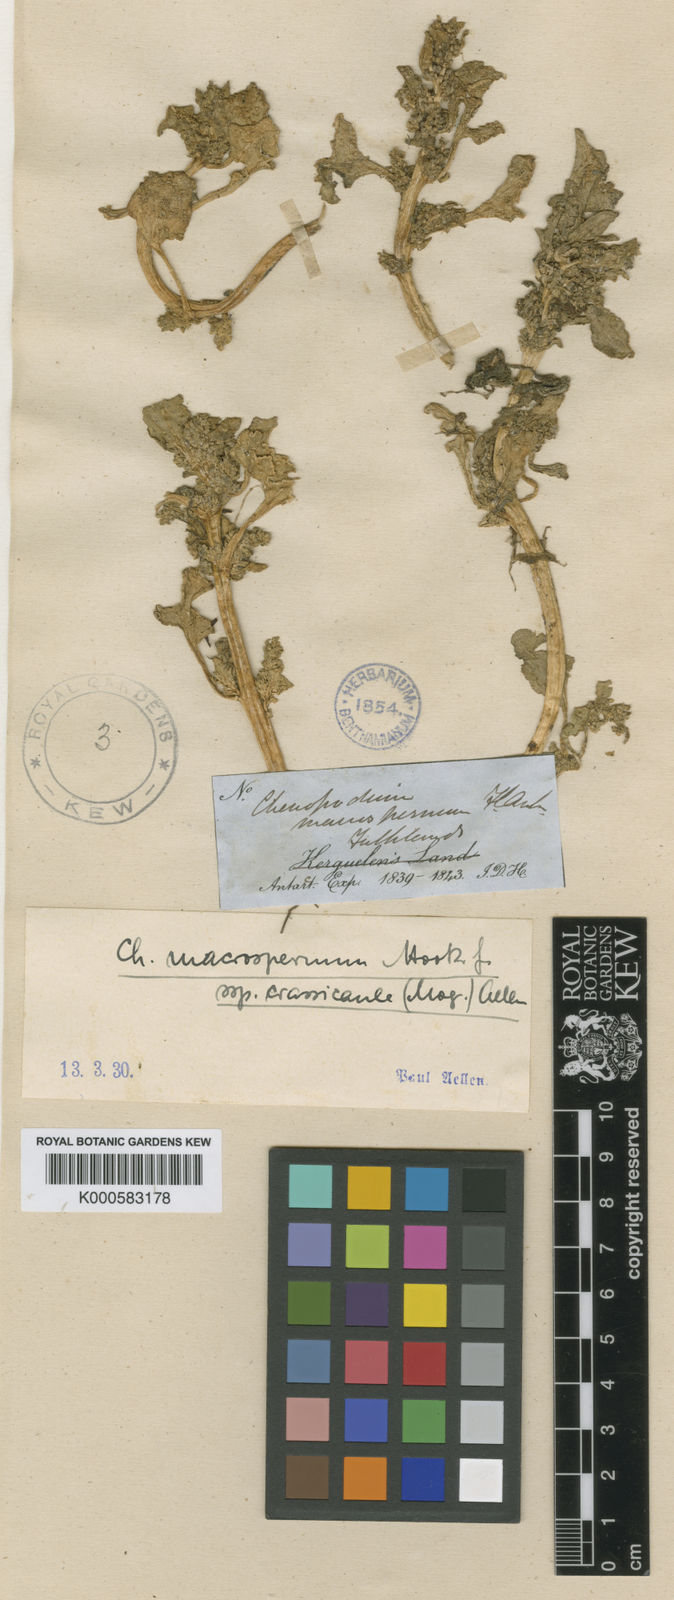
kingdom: Plantae
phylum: Tracheophyta
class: Magnoliopsida
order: Caryophyllales
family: Amaranthaceae
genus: Oxybasis
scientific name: Oxybasis macrosperma
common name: Large-seed goosefoot
